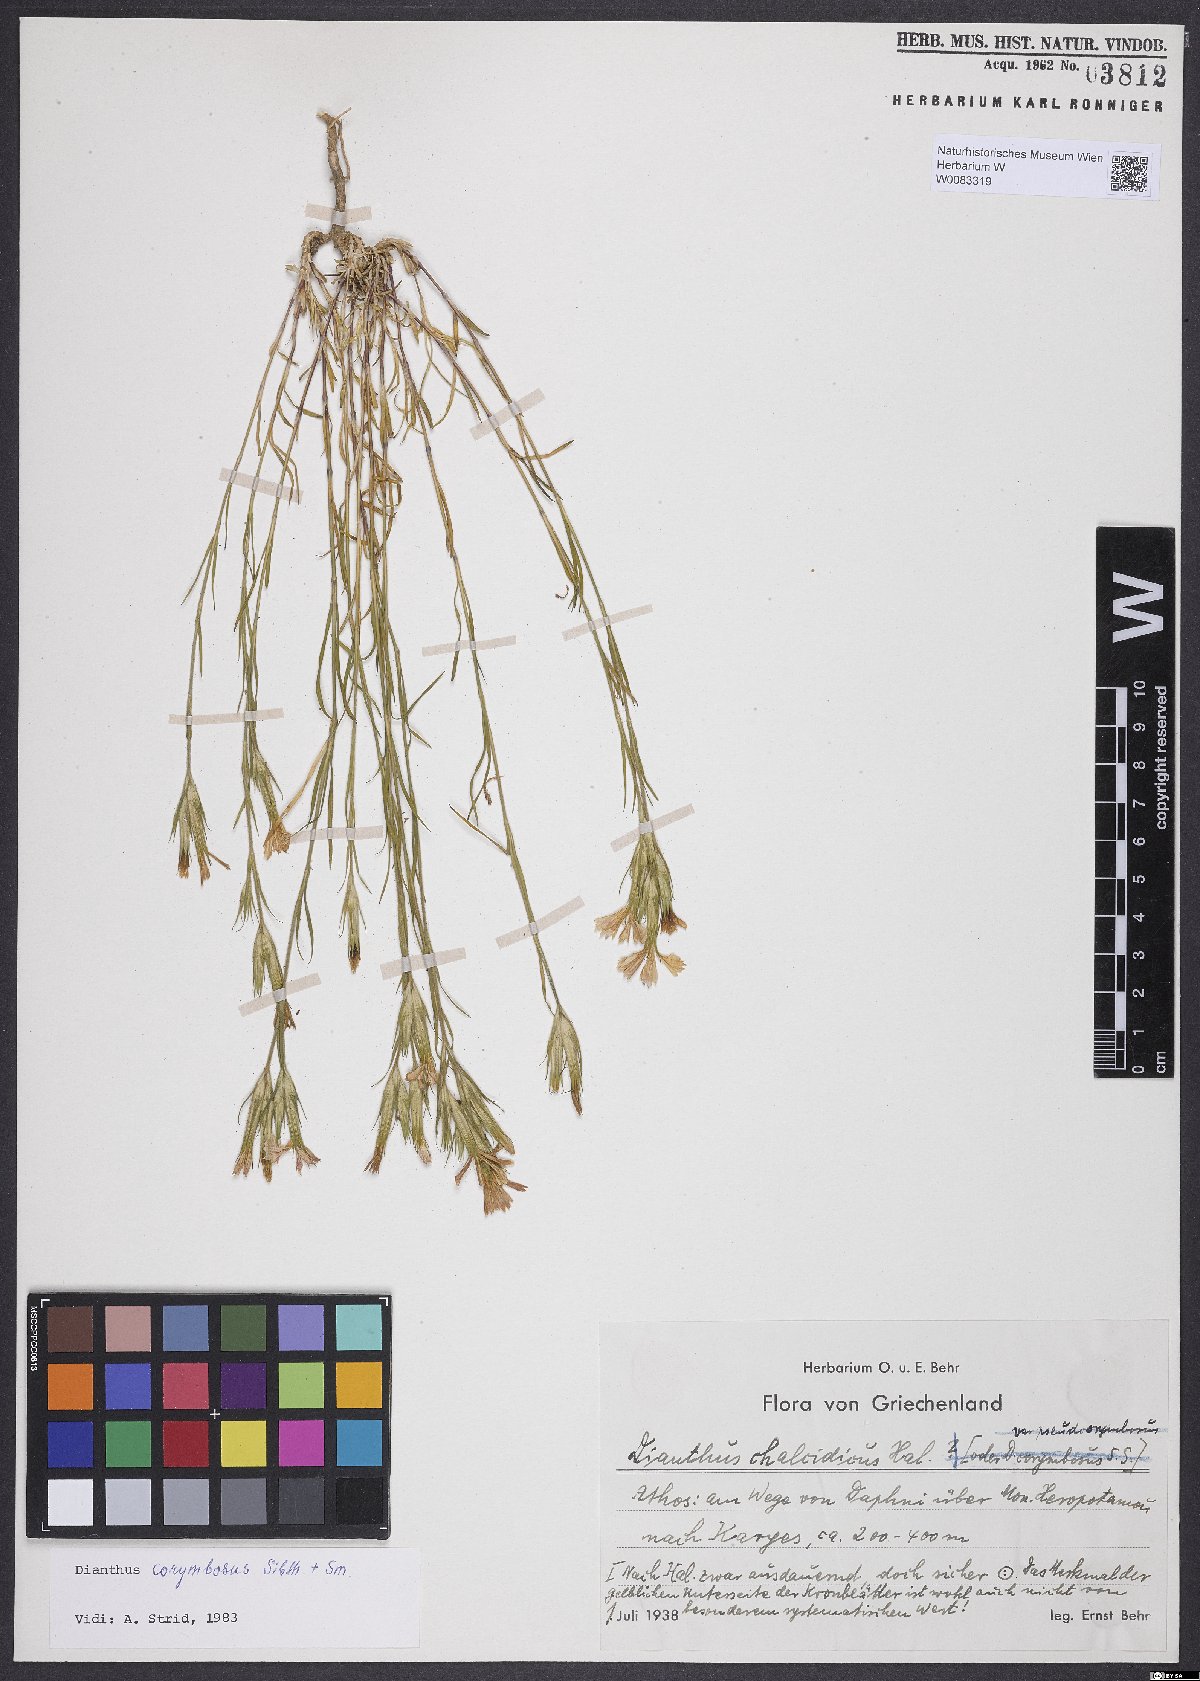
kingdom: Plantae
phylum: Tracheophyta
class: Magnoliopsida
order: Caryophyllales
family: Caryophyllaceae
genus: Dianthus
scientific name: Dianthus corymbosus
